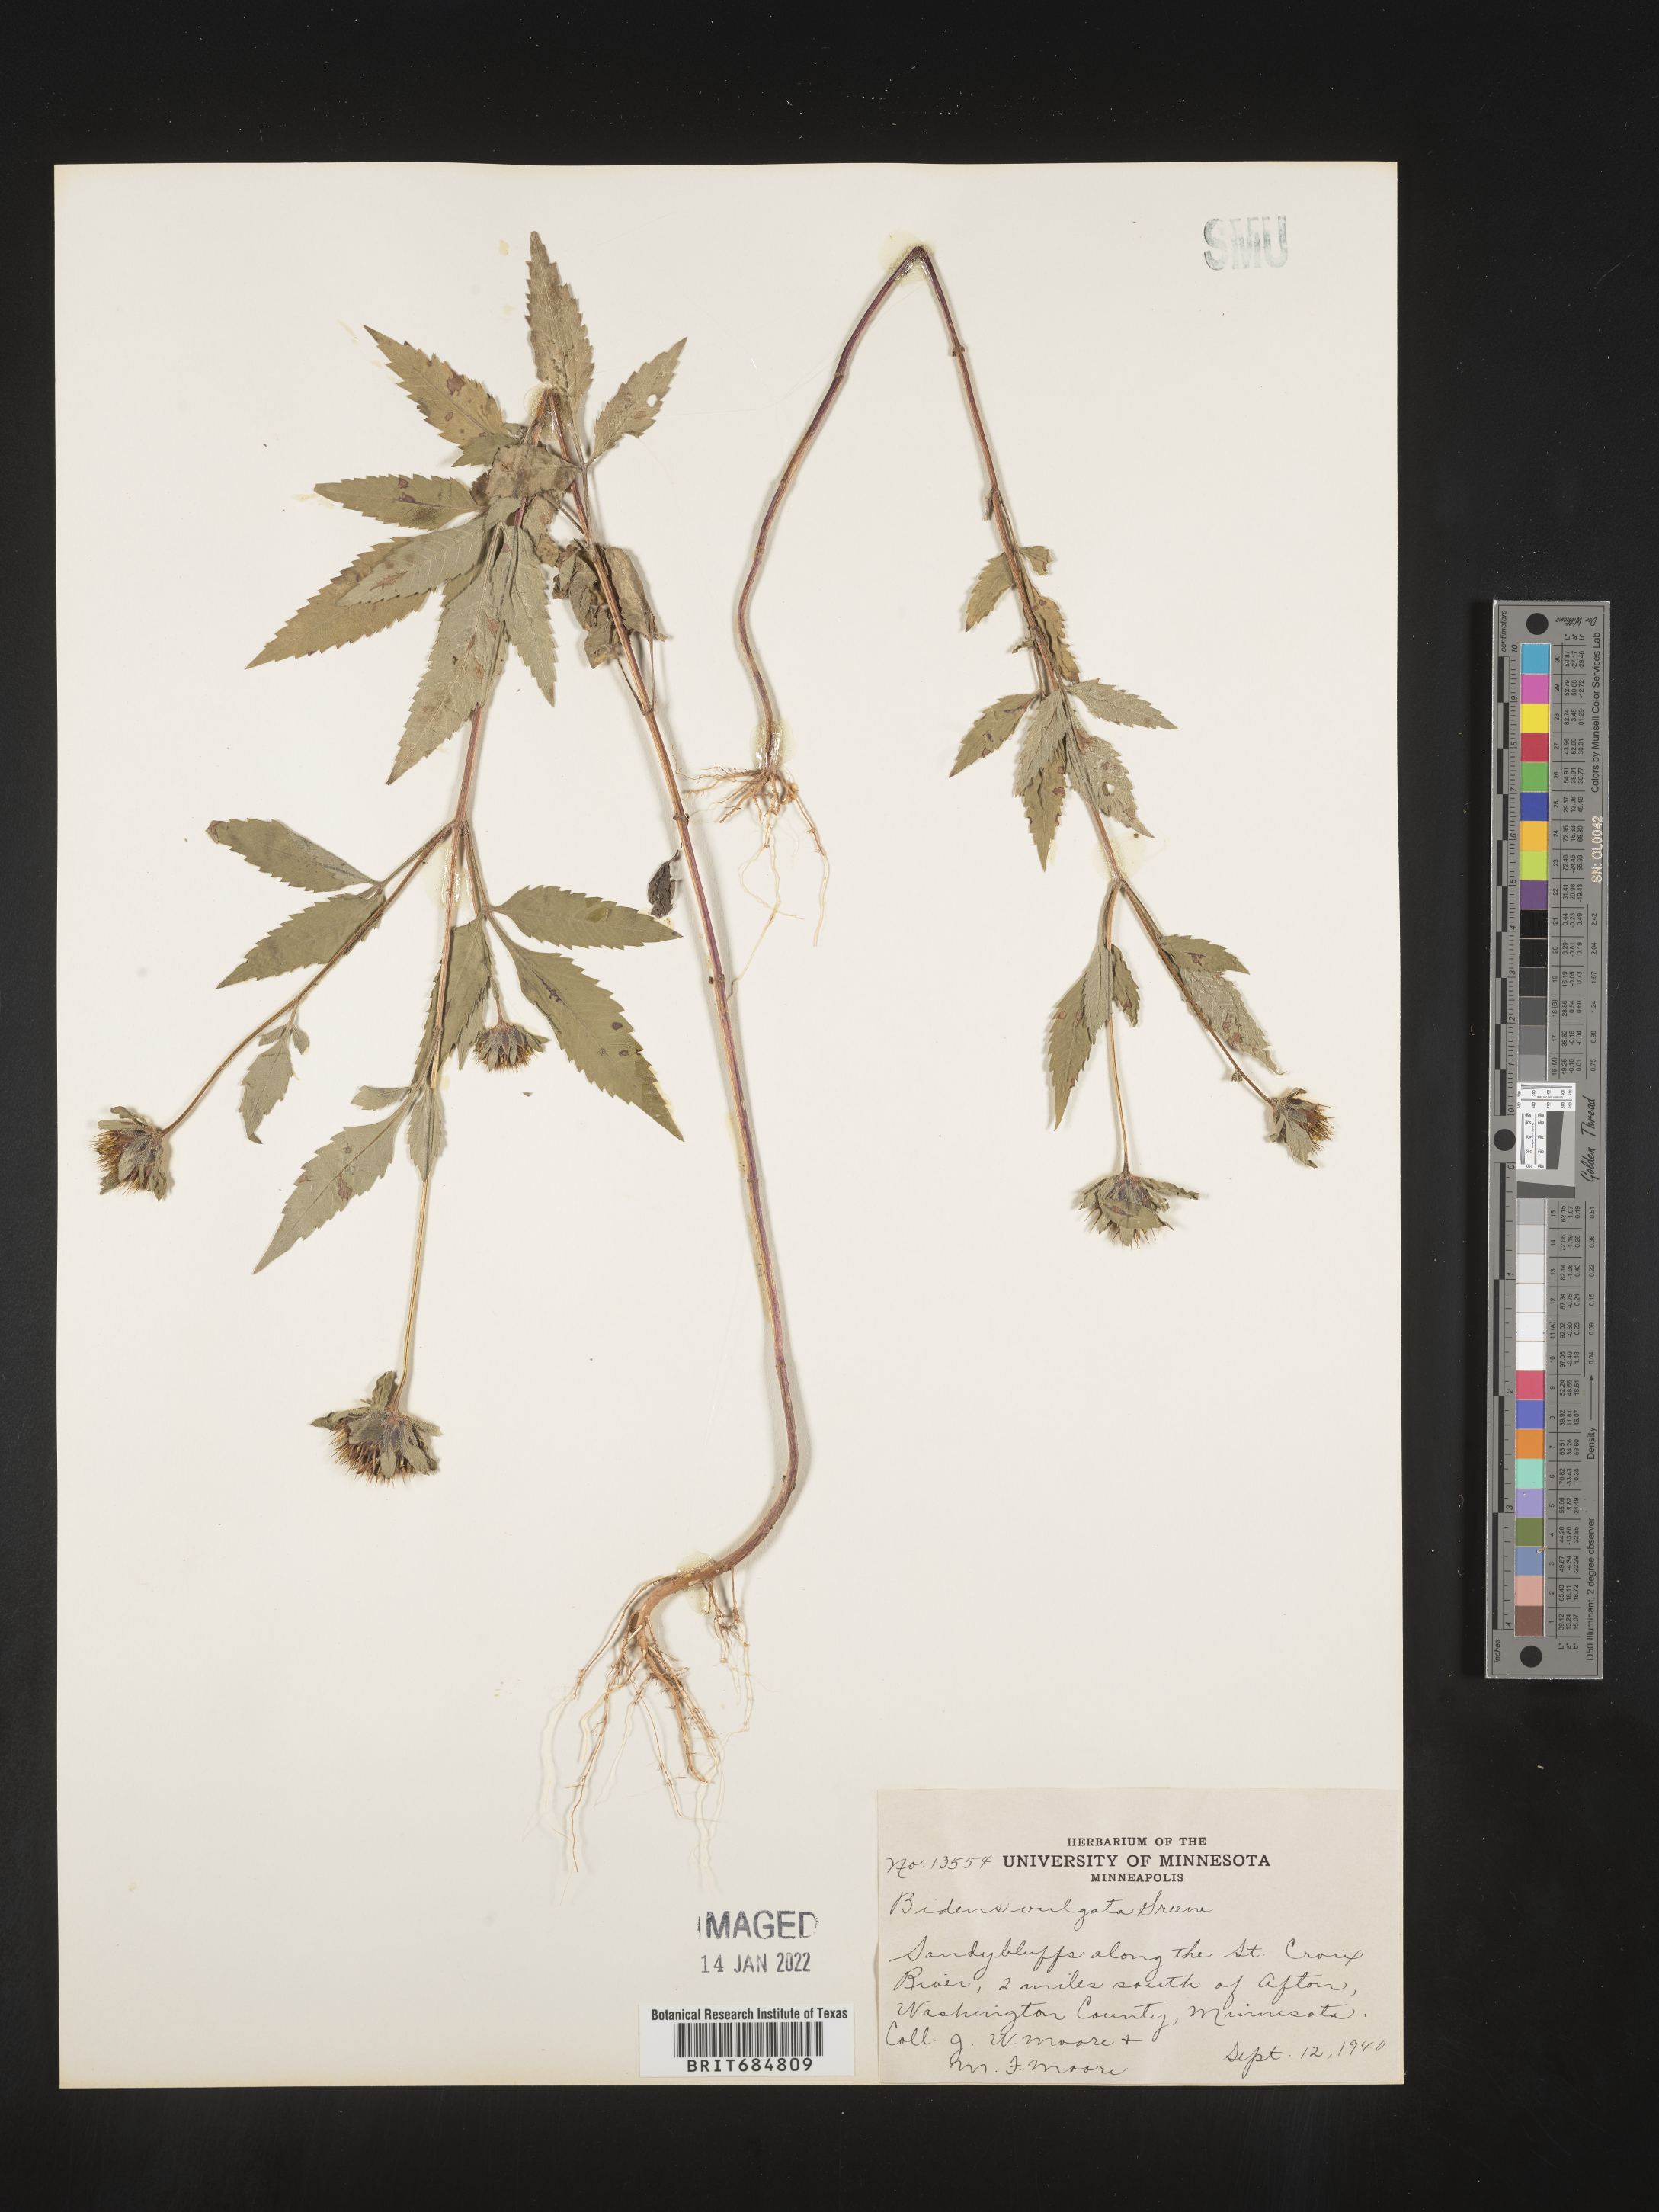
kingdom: Plantae
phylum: Tracheophyta
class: Magnoliopsida
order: Asterales
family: Asteraceae
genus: Bidens
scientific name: Bidens vulgata
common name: Tall beggarticks
